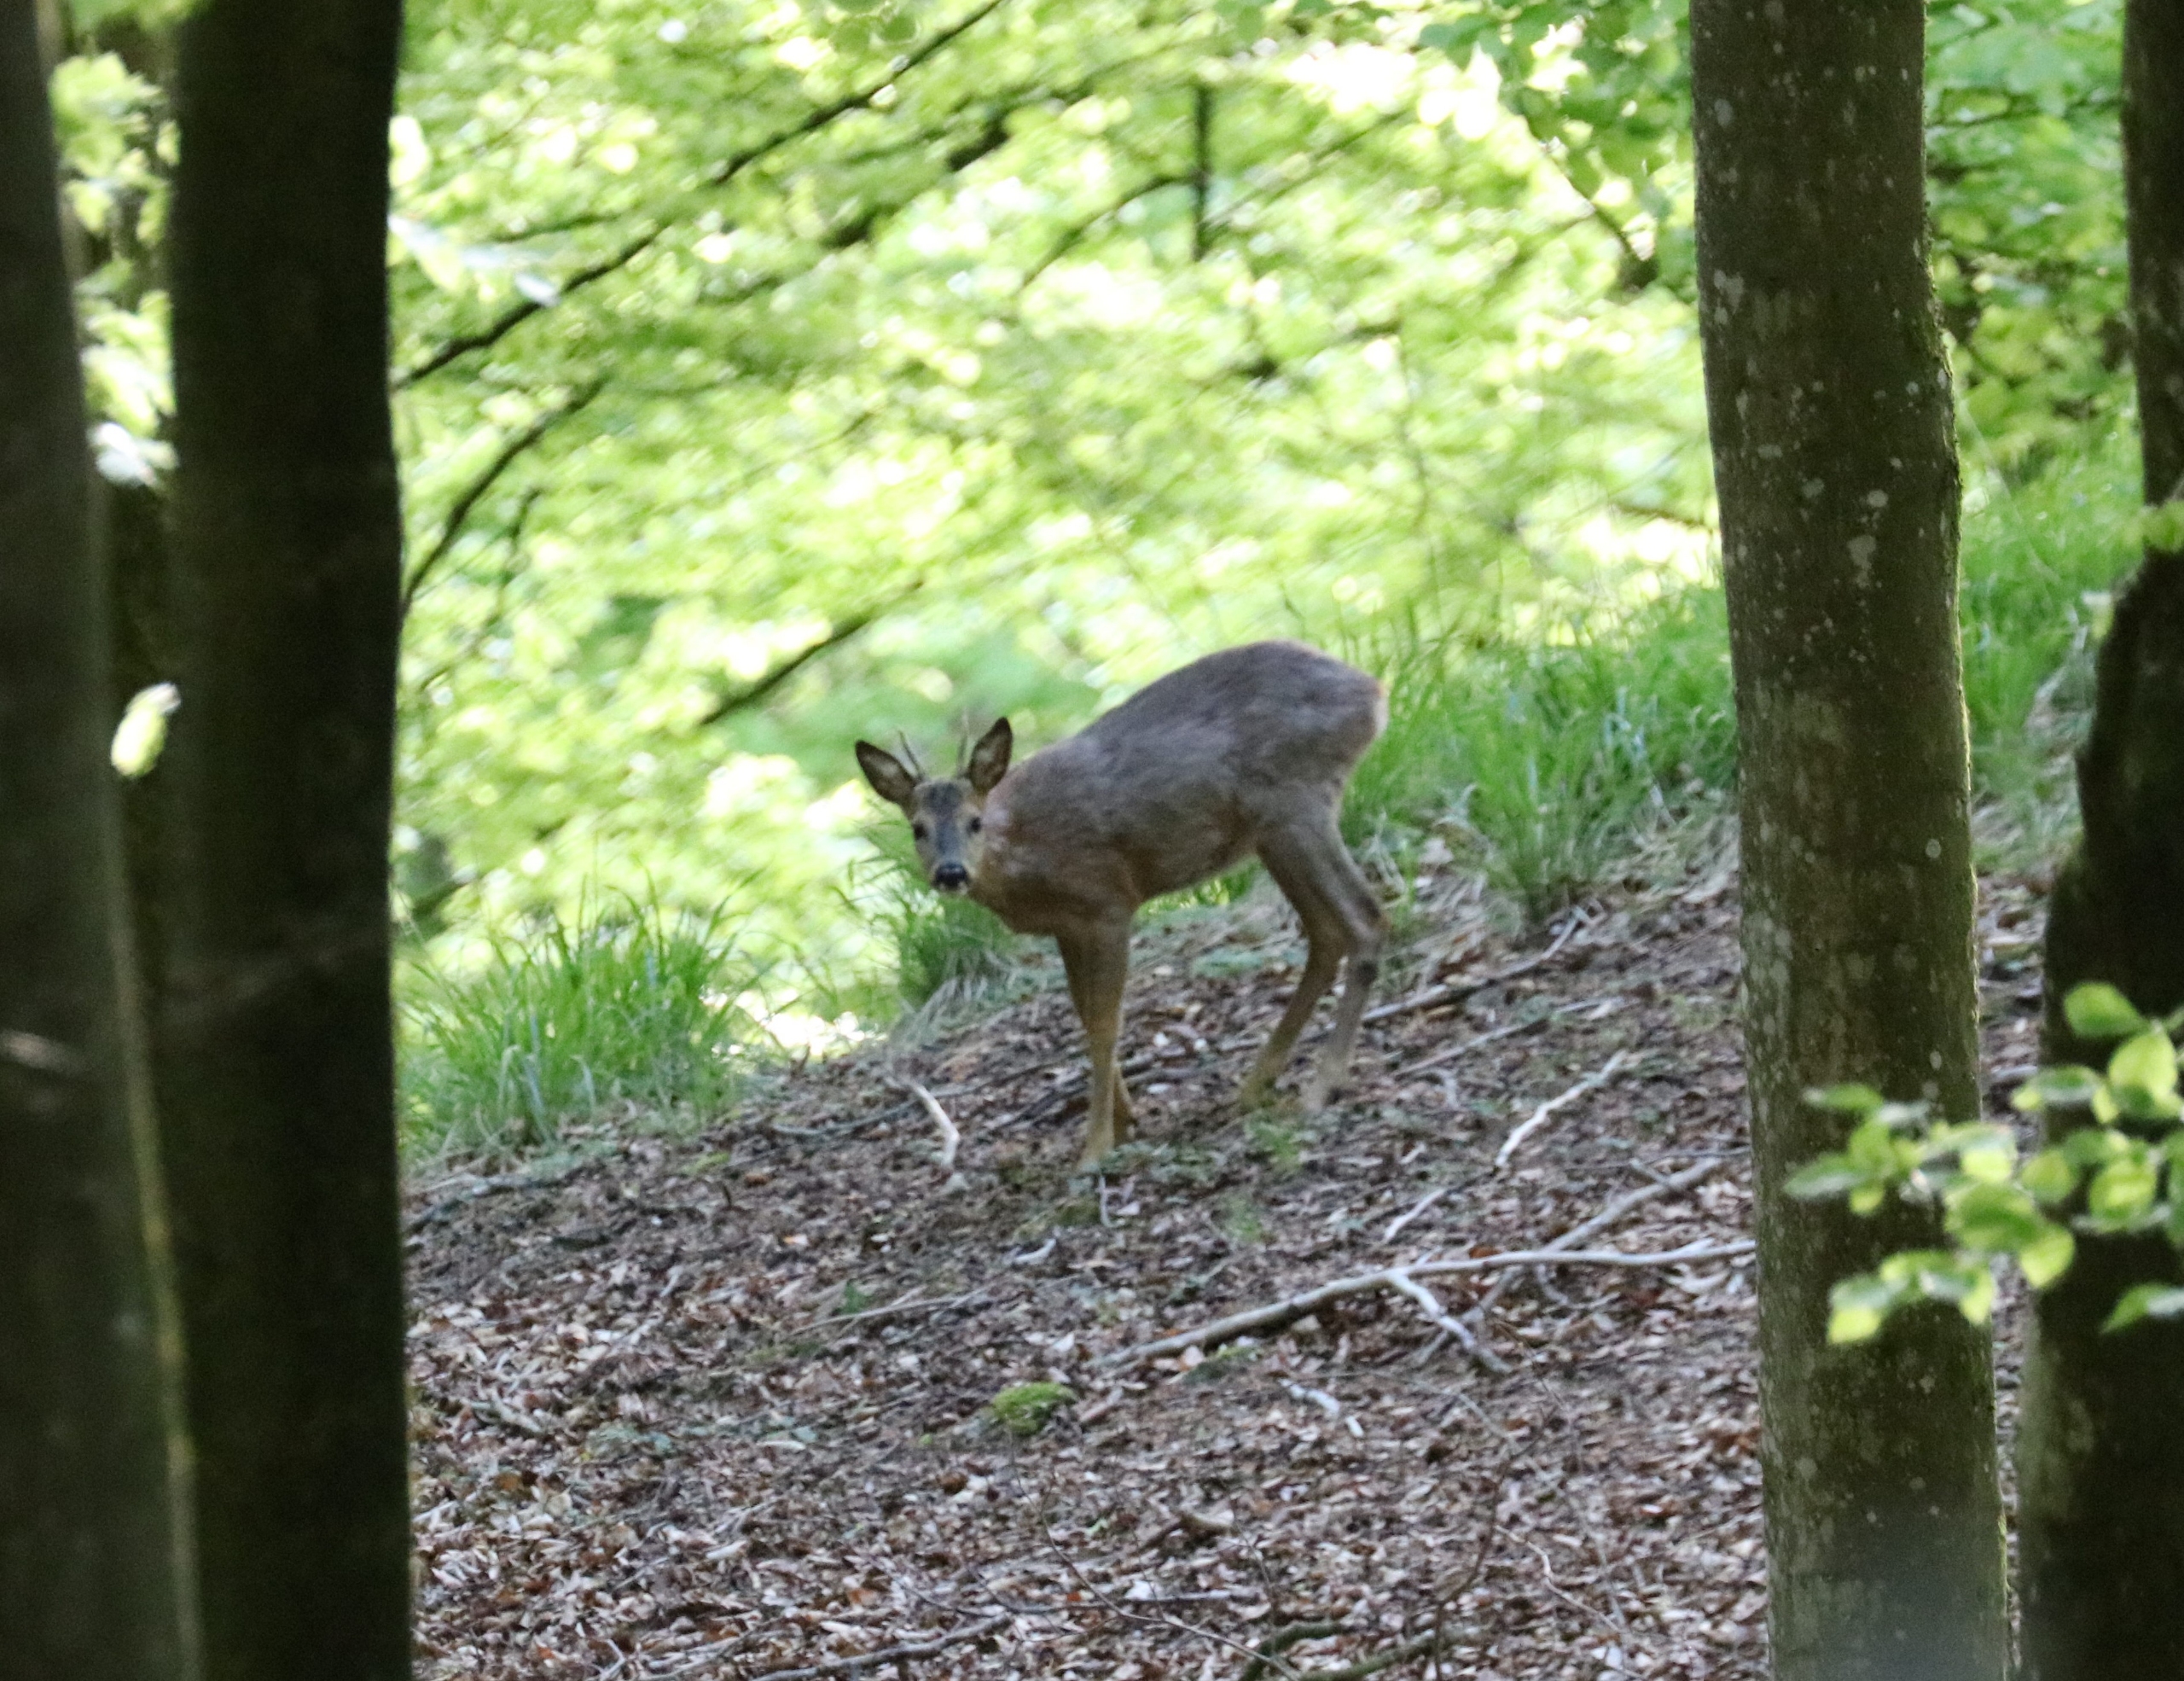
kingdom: Animalia
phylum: Chordata
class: Mammalia
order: Artiodactyla
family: Cervidae
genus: Capreolus
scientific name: Capreolus capreolus
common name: Rådyr
